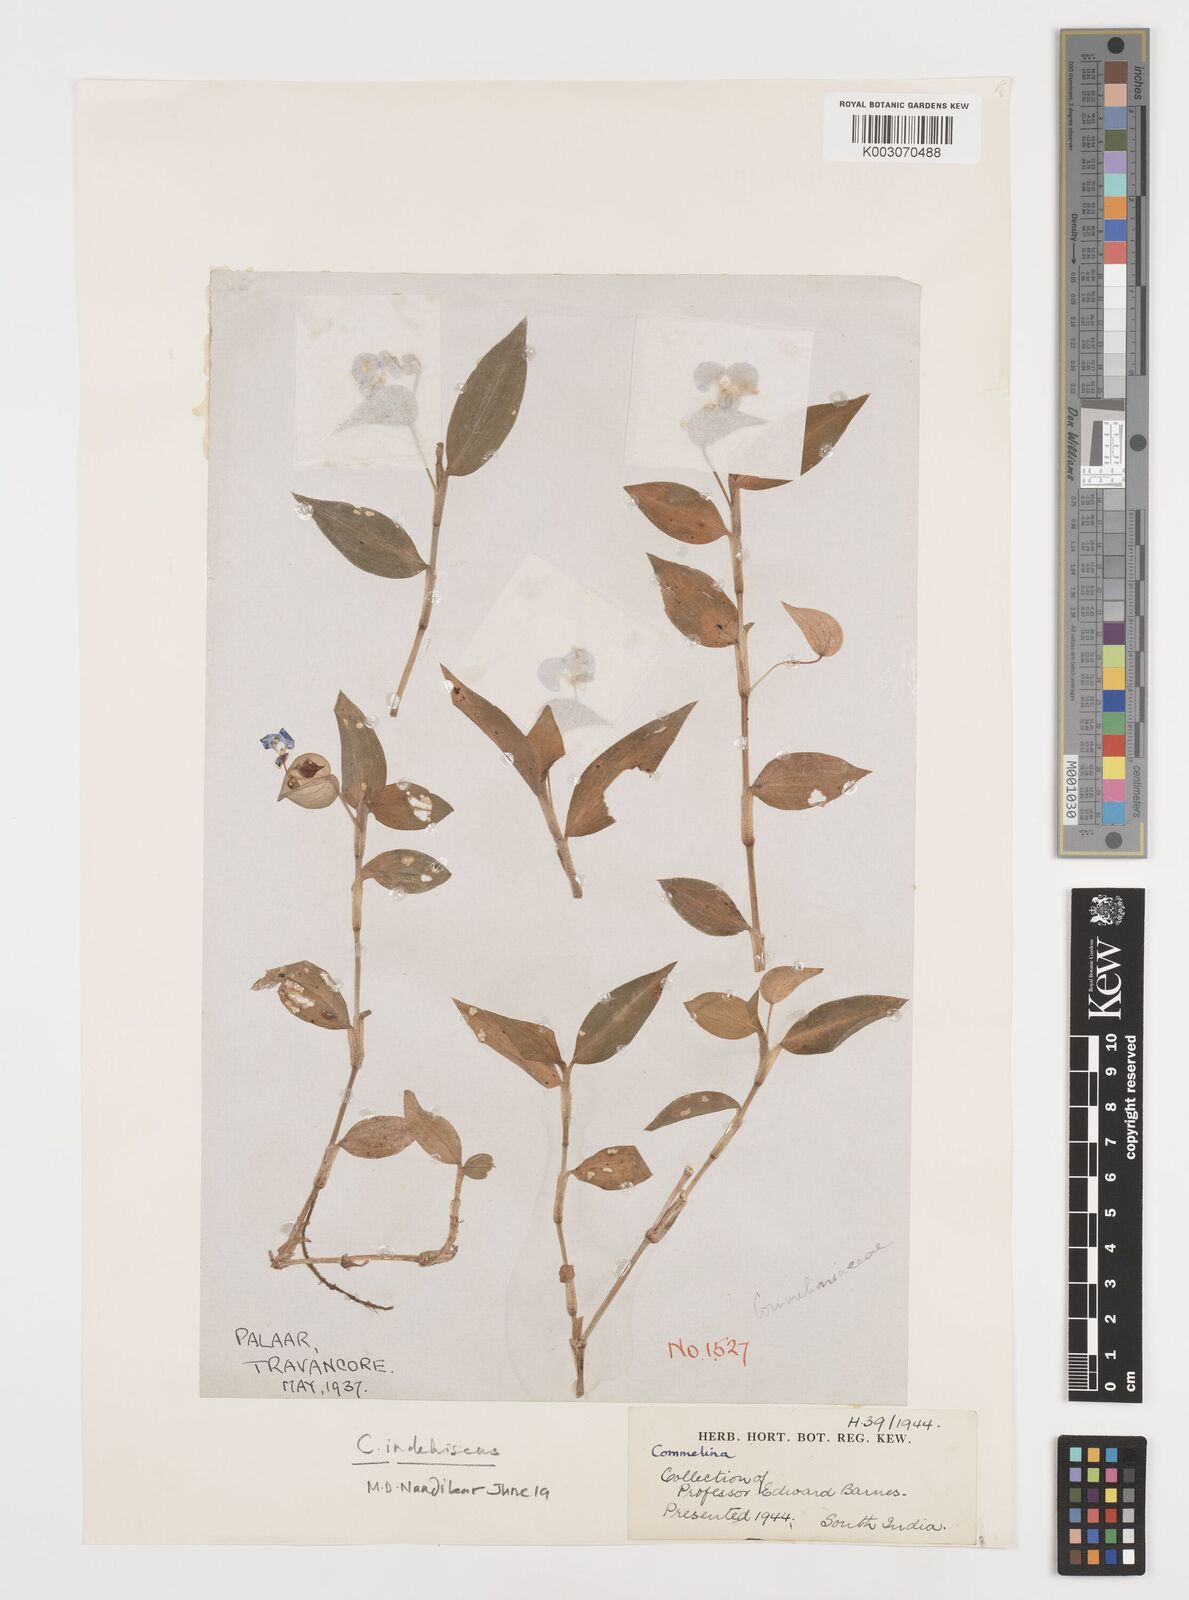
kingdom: Plantae
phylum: Tracheophyta
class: Liliopsida
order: Commelinales
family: Commelinaceae
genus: Commelina
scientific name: Commelina
